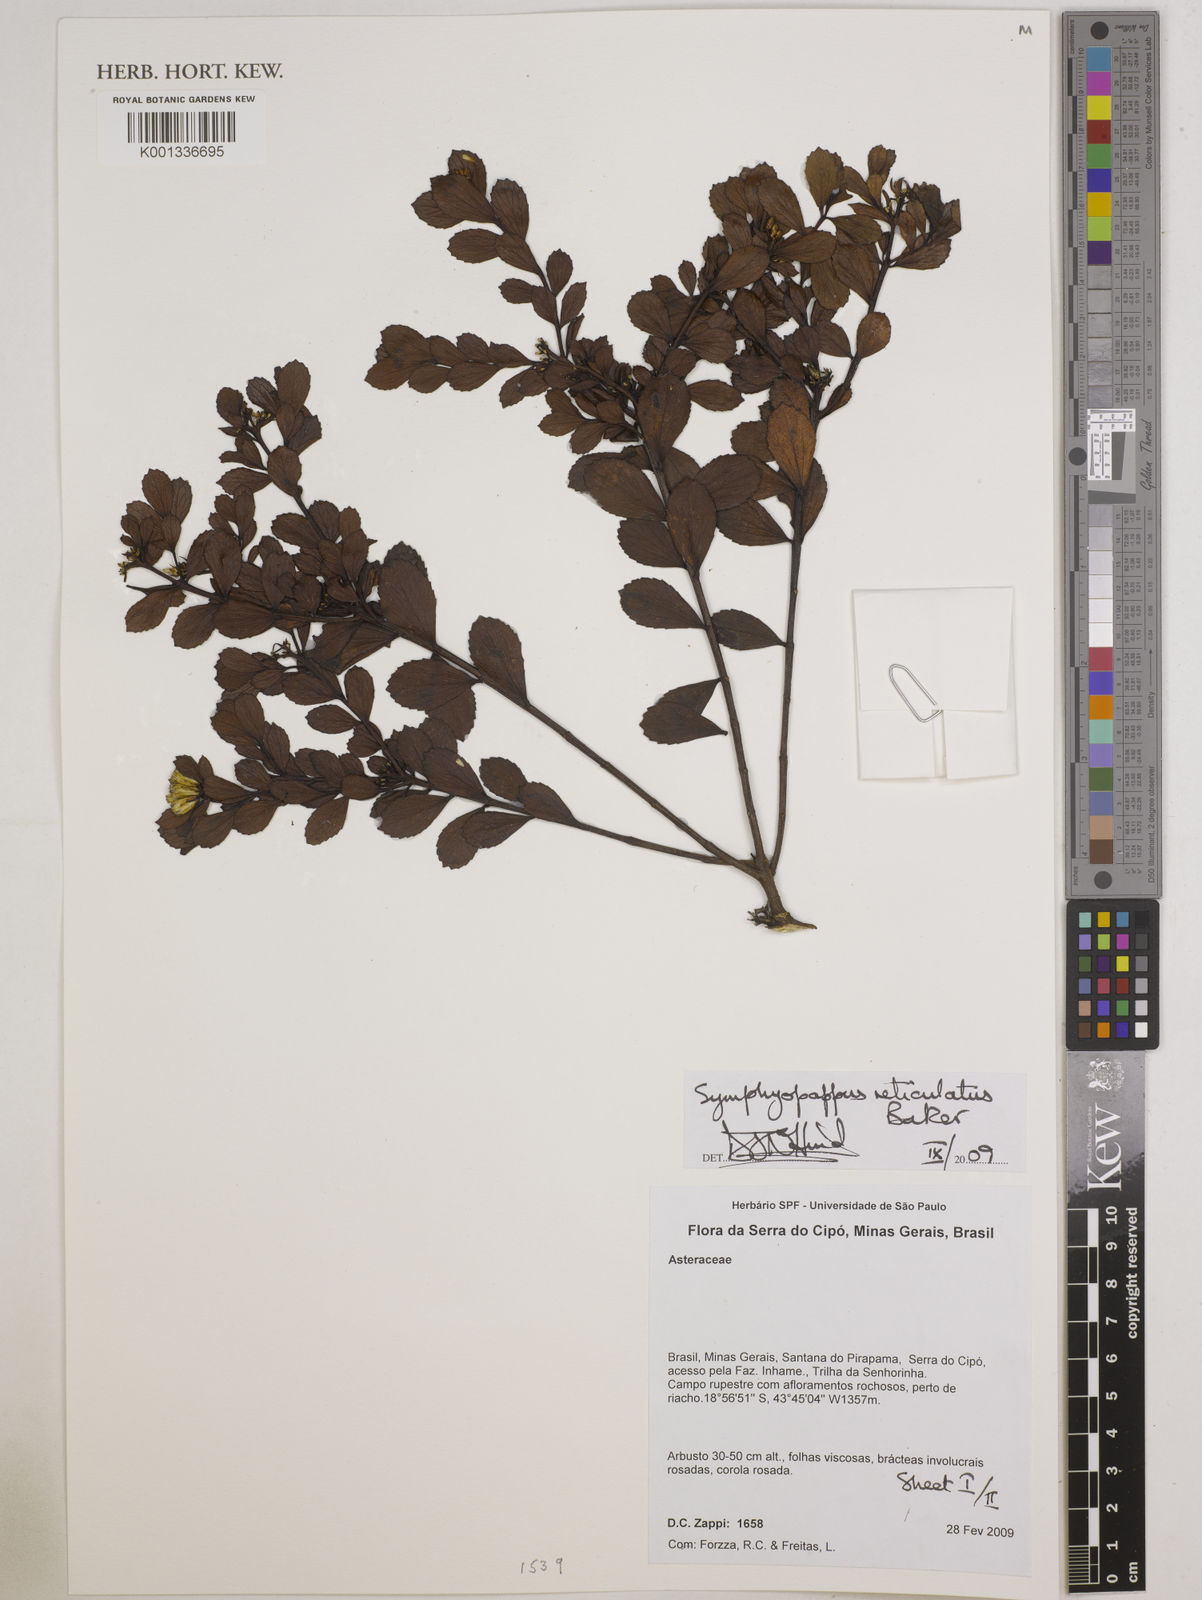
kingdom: Plantae
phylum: Tracheophyta
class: Magnoliopsida
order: Asterales
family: Asteraceae
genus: Symphyopappus
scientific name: Symphyopappus reticulatus
